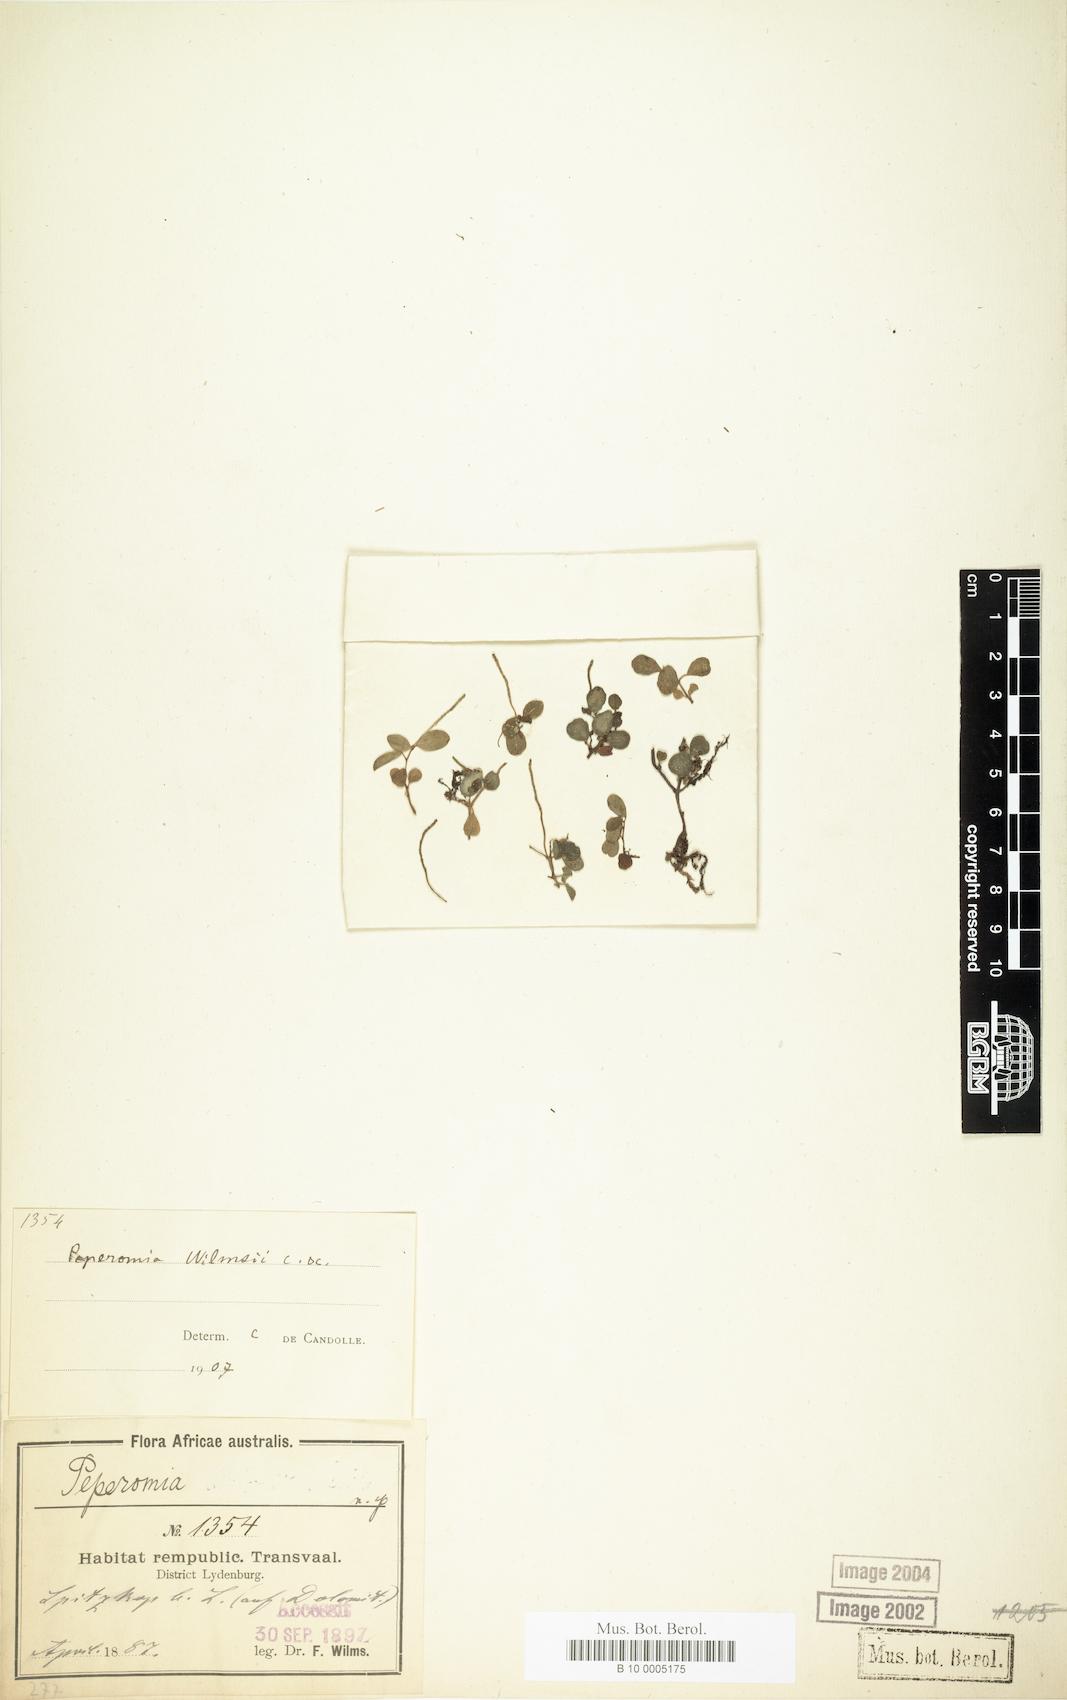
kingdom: Plantae
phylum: Tracheophyta
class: Magnoliopsida
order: Piperales
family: Piperaceae
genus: Peperomia
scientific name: Peperomia retusa
